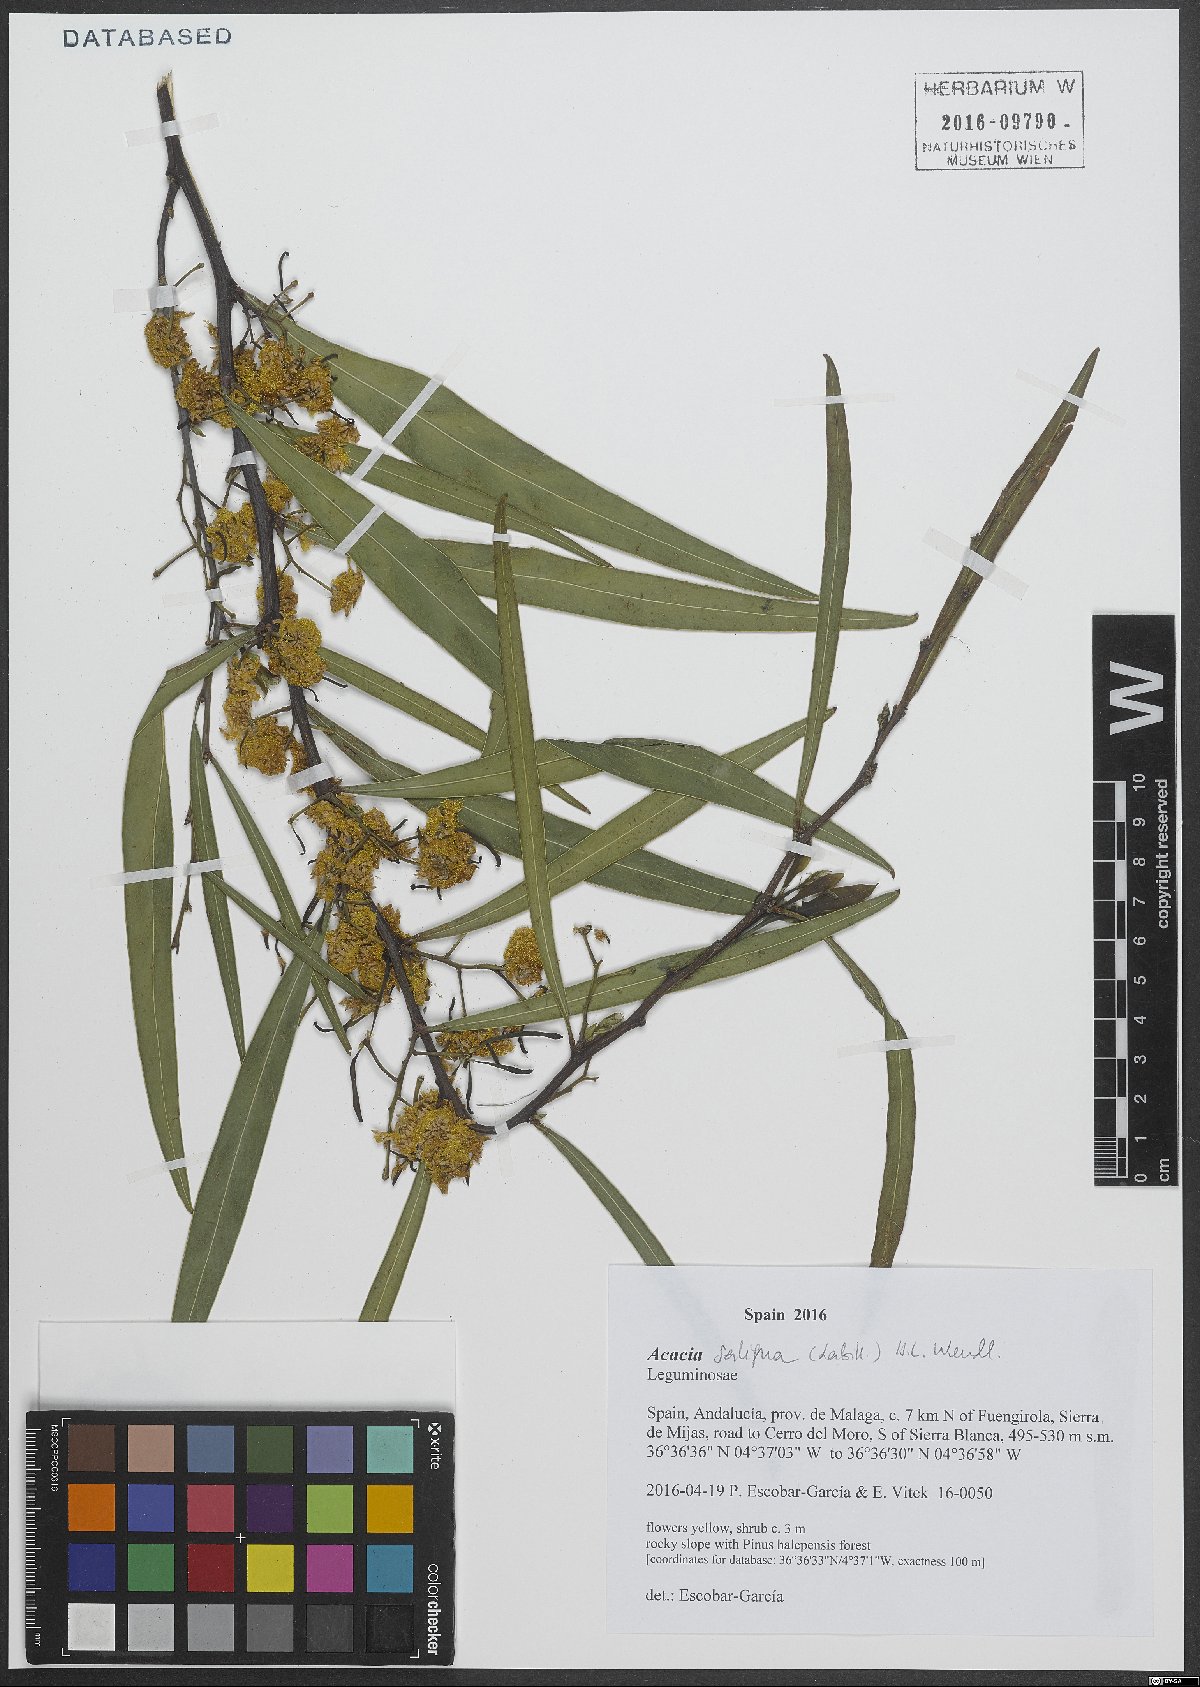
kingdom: Plantae
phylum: Tracheophyta
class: Magnoliopsida
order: Fabales
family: Fabaceae
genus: Acacia
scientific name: Acacia saligna
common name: Orange wattle
